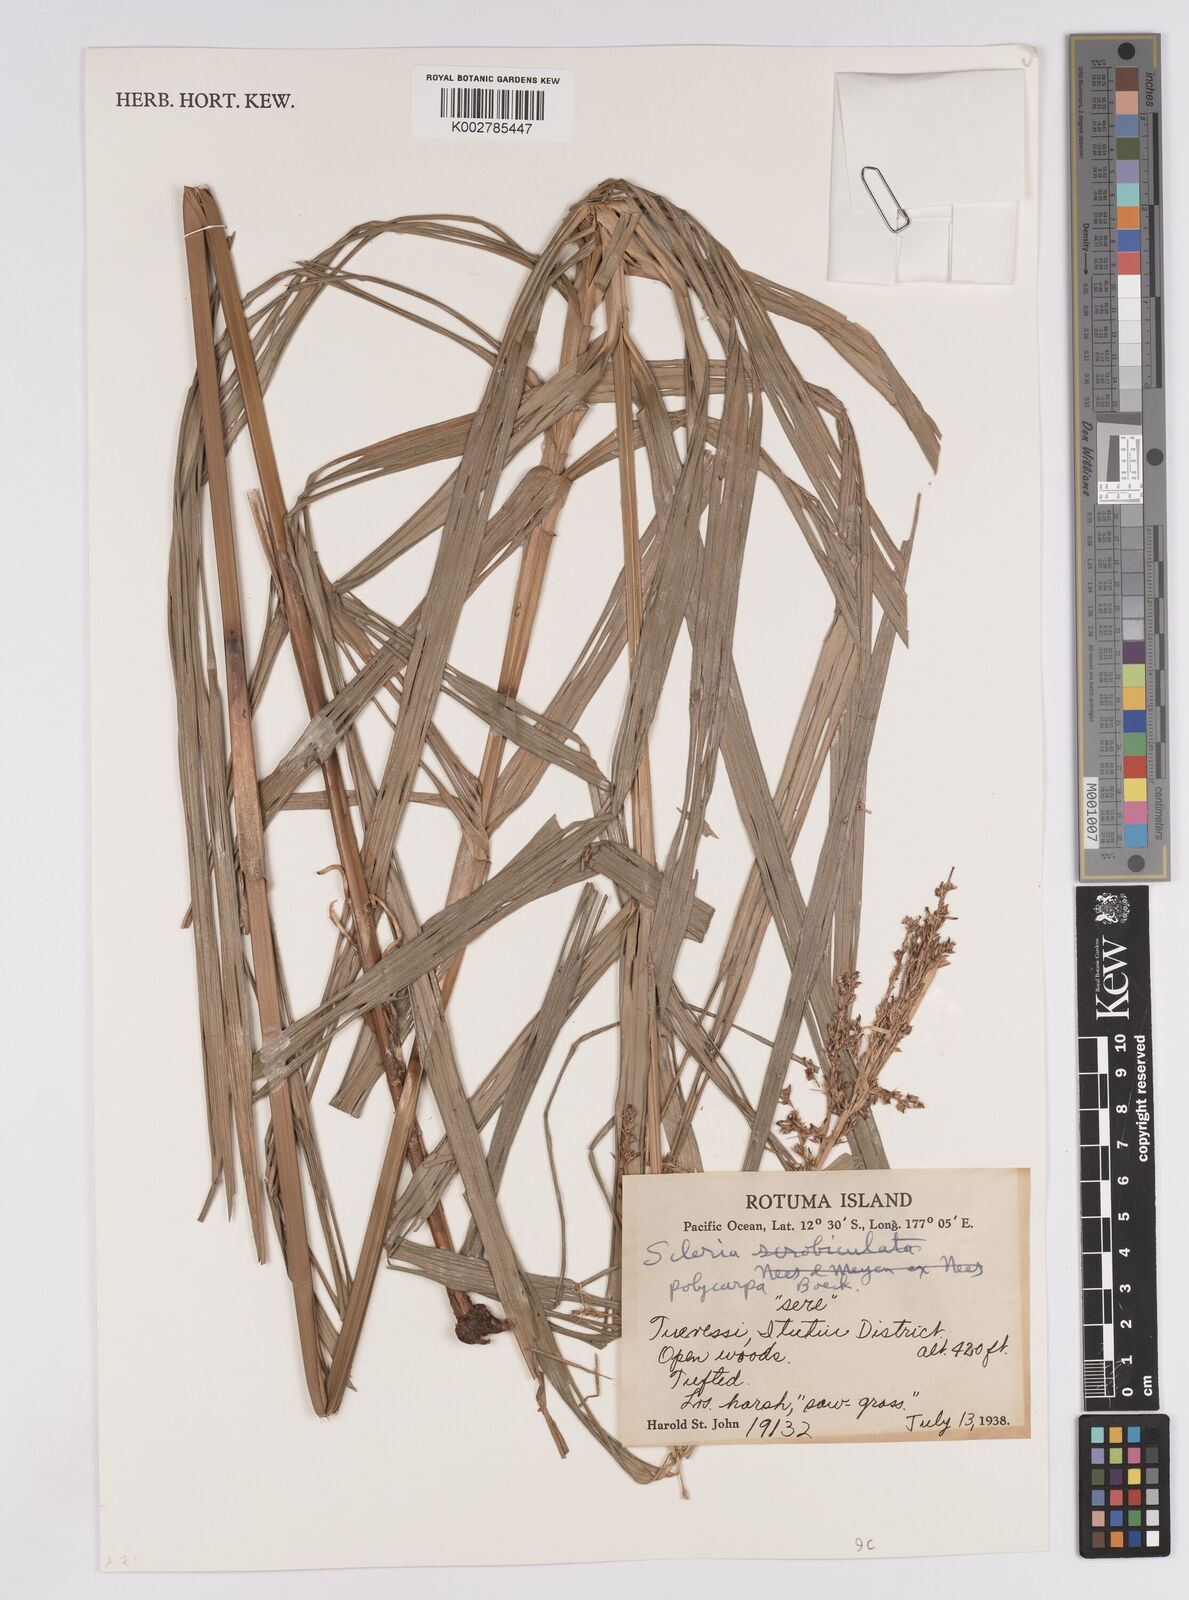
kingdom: Plantae
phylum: Tracheophyta
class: Liliopsida
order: Poales
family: Cyperaceae
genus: Scleria
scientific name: Scleria polycarpa
